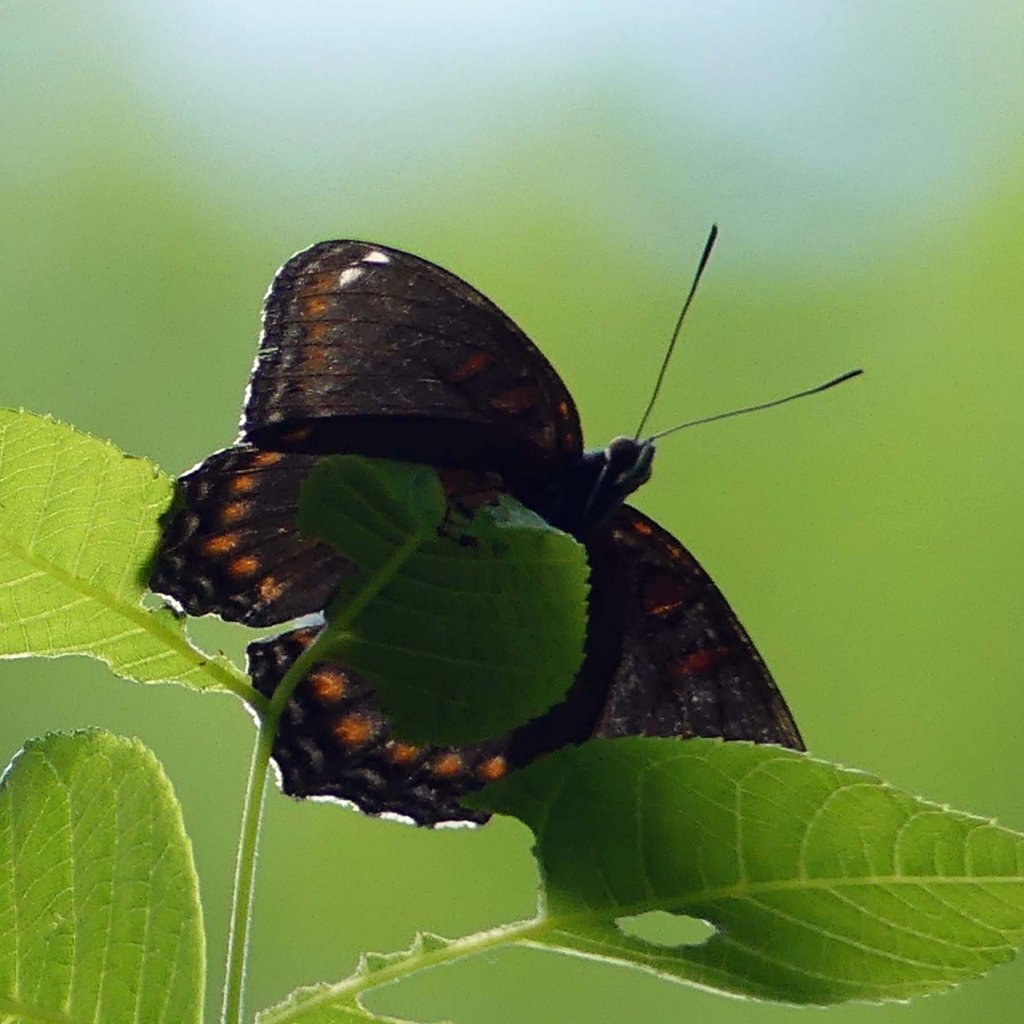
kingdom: Animalia
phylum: Arthropoda
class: Insecta
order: Lepidoptera
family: Nymphalidae
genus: Limenitis
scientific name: Limenitis astyanax
